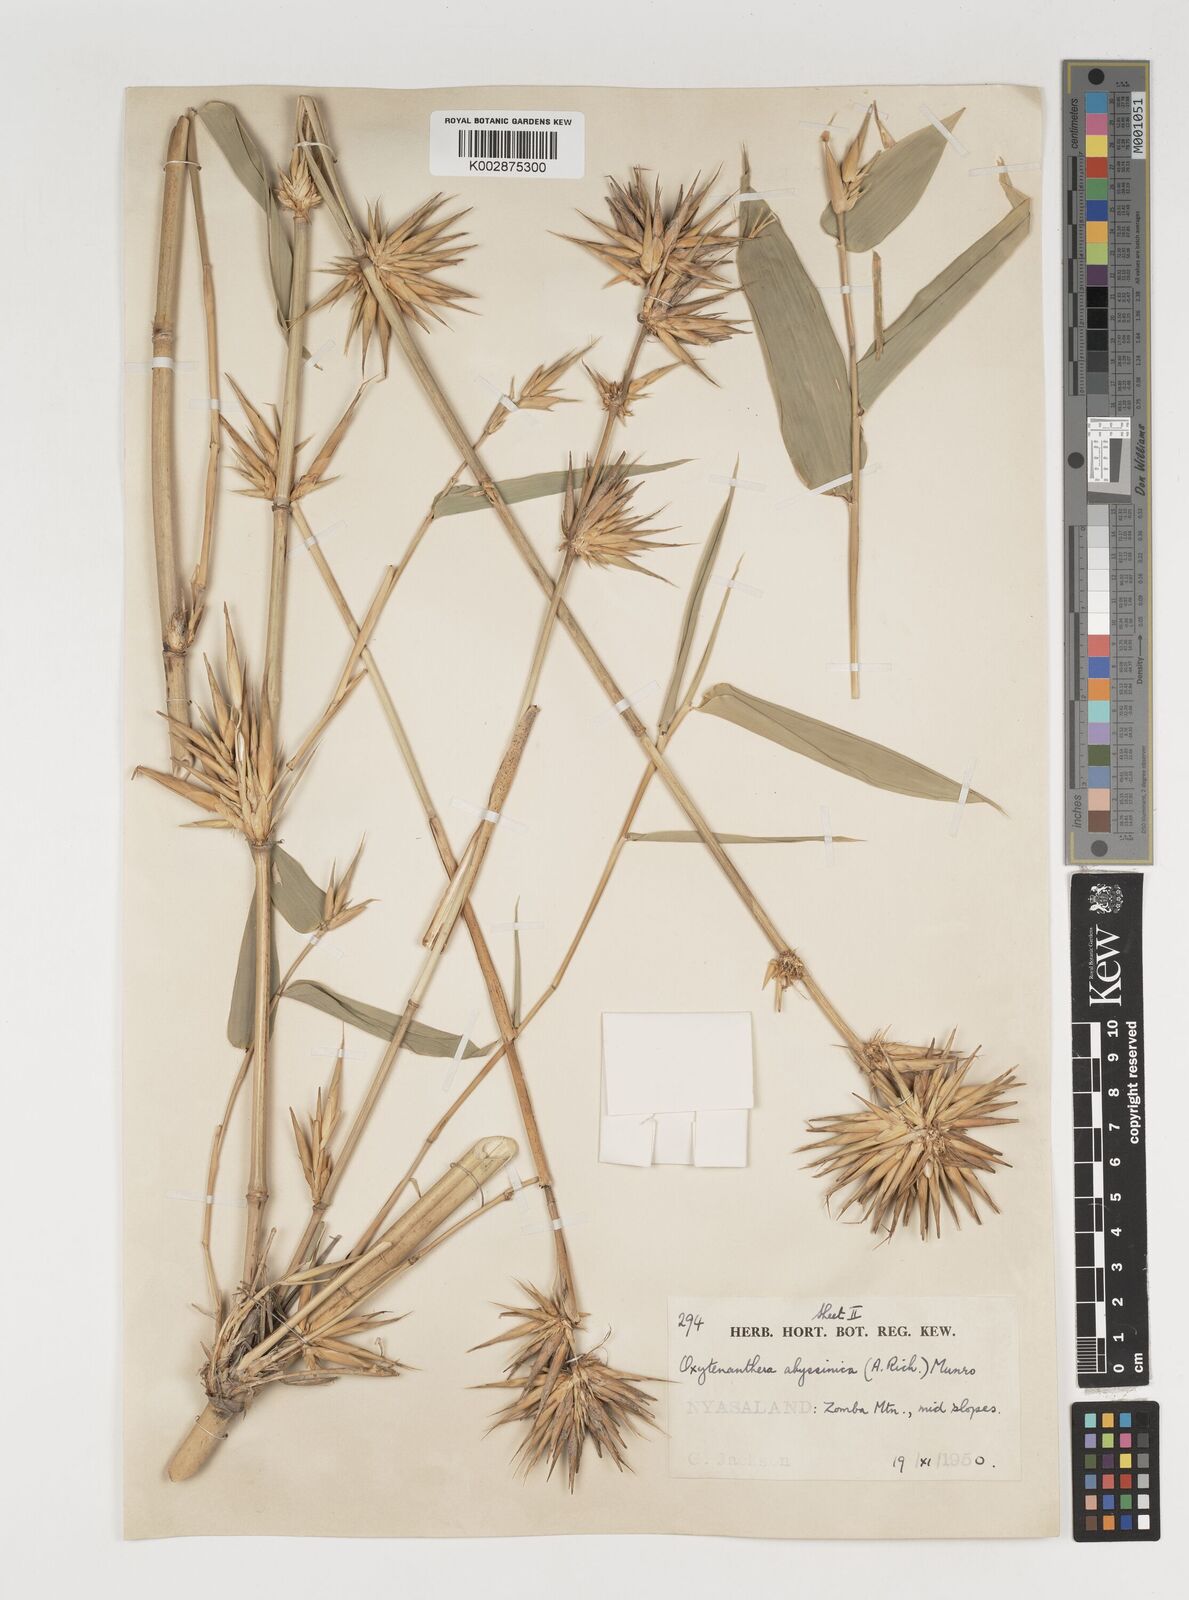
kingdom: Plantae
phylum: Tracheophyta
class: Liliopsida
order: Poales
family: Poaceae
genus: Oxytenanthera
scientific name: Oxytenanthera abyssinica
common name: Wine bamboo
